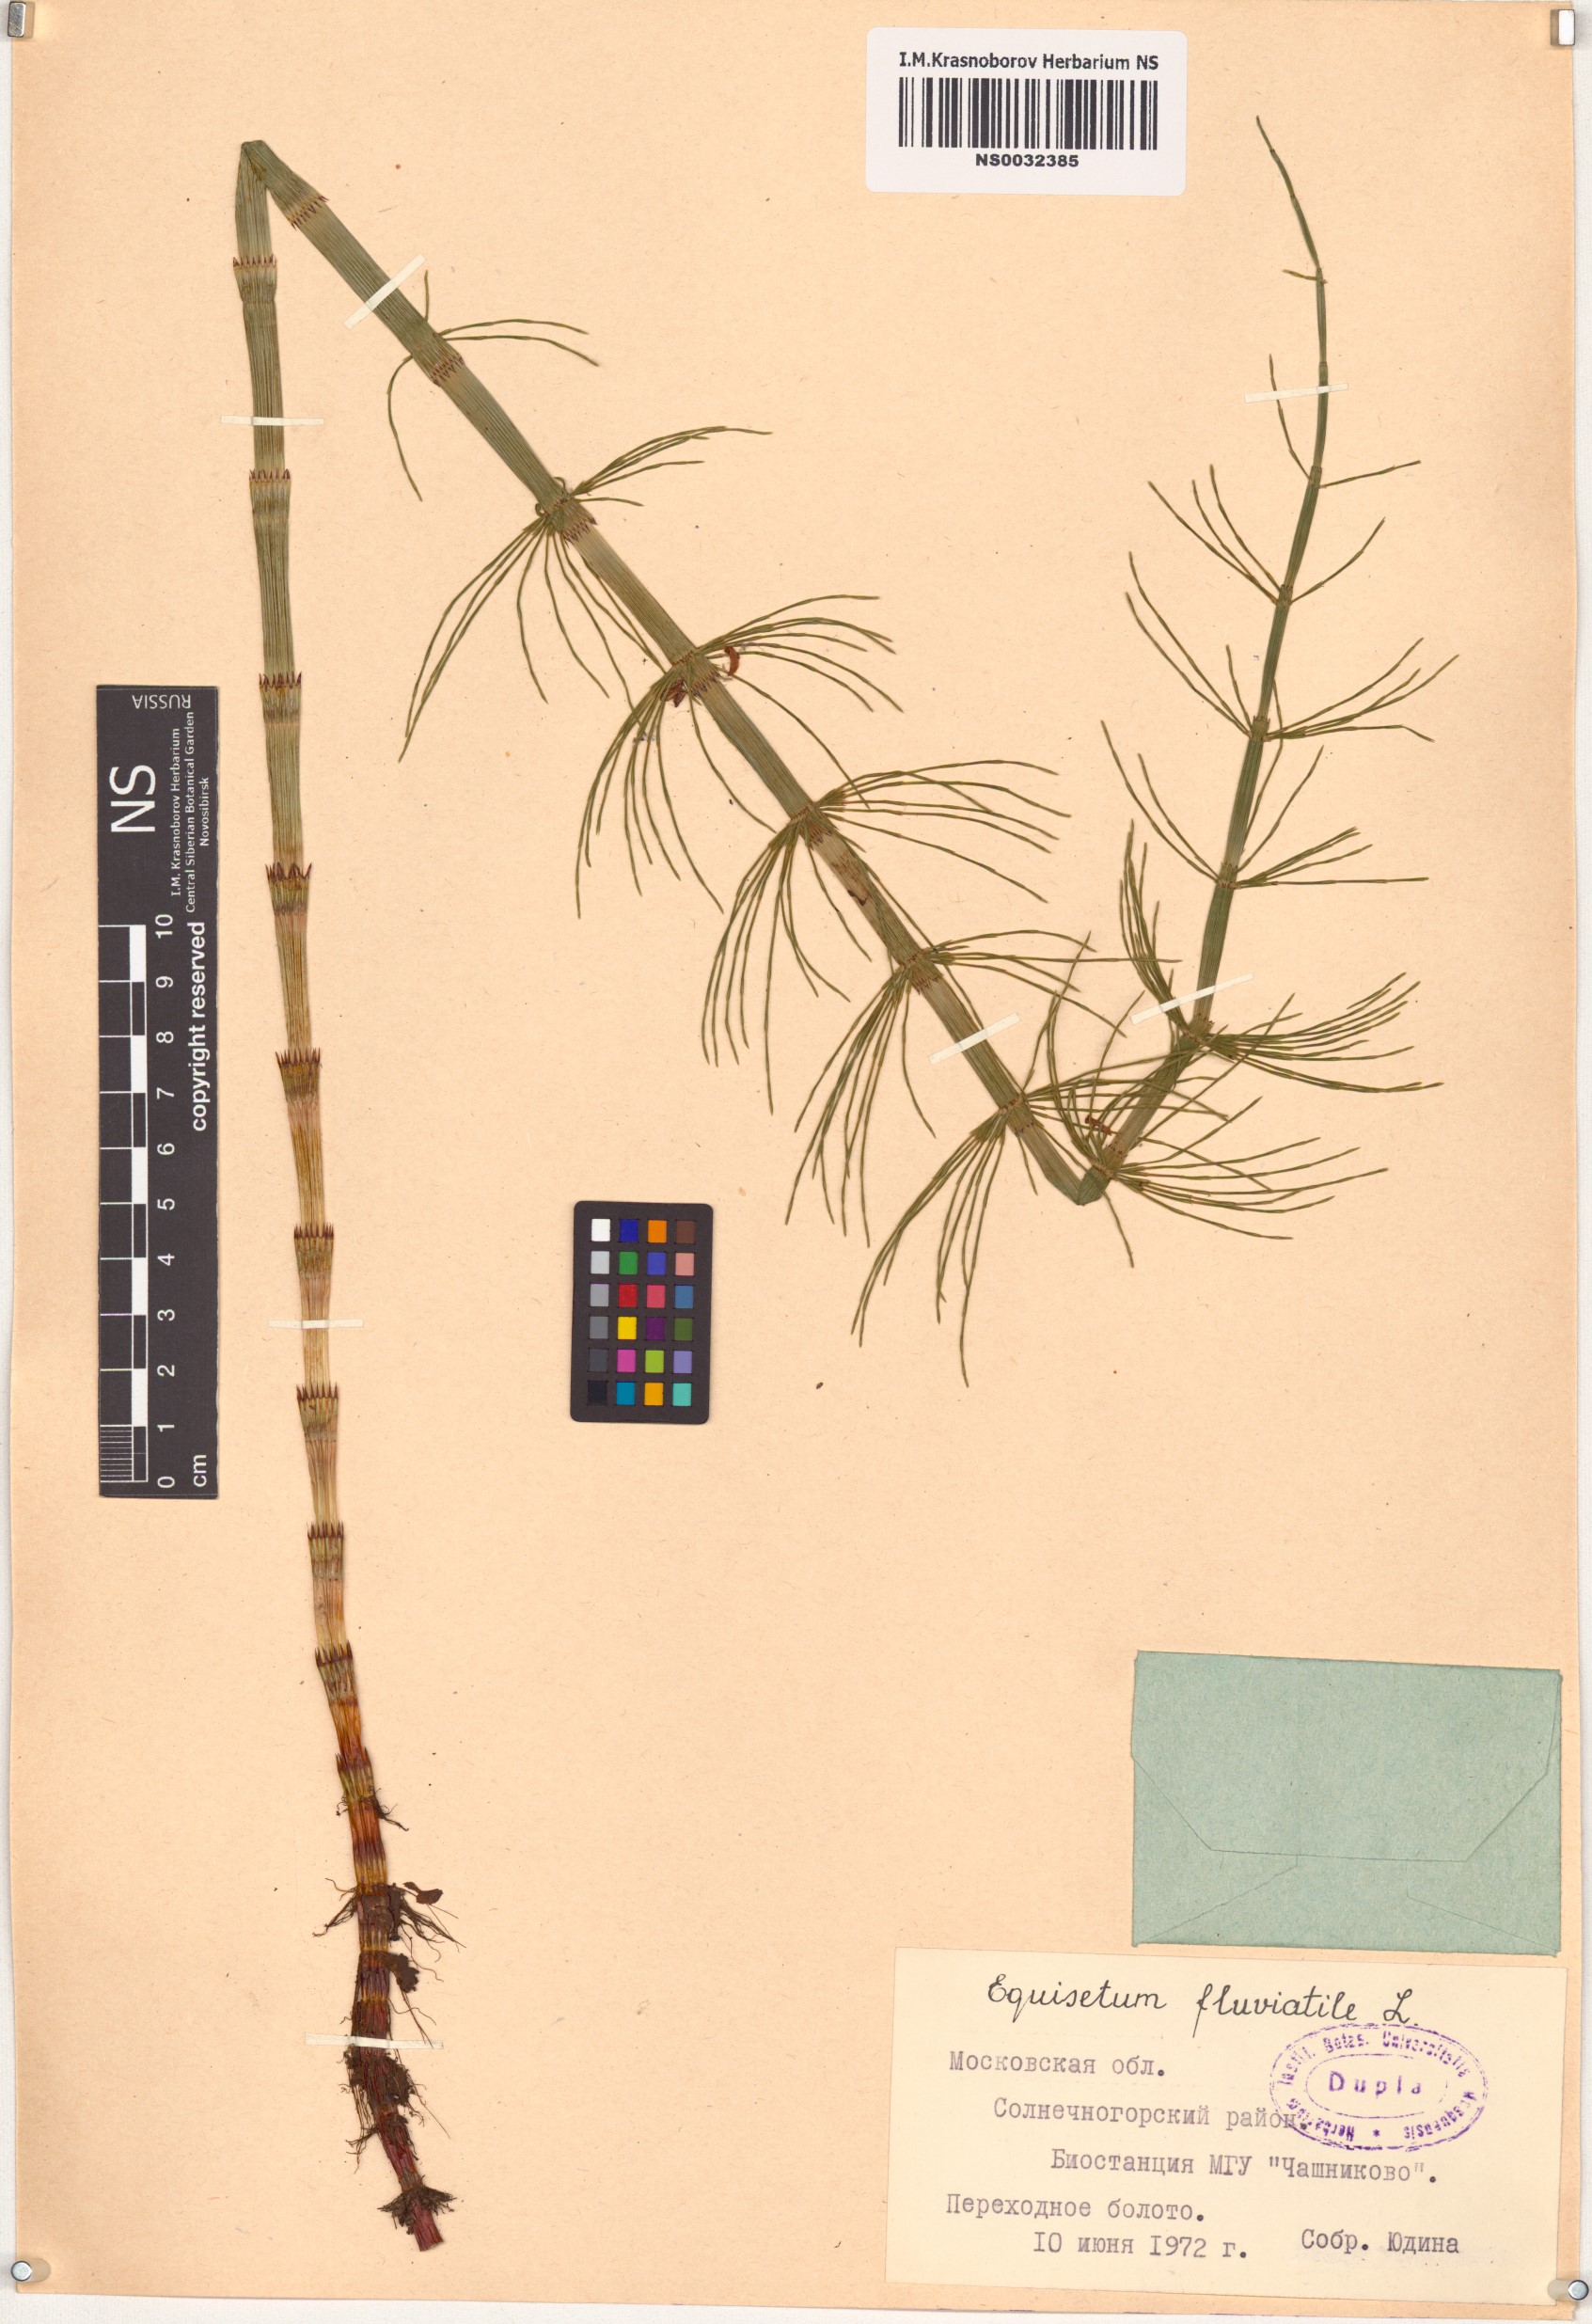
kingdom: Plantae
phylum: Tracheophyta
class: Polypodiopsida
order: Equisetales
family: Equisetaceae
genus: Equisetum
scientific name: Equisetum fluviatile
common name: Water horsetail
